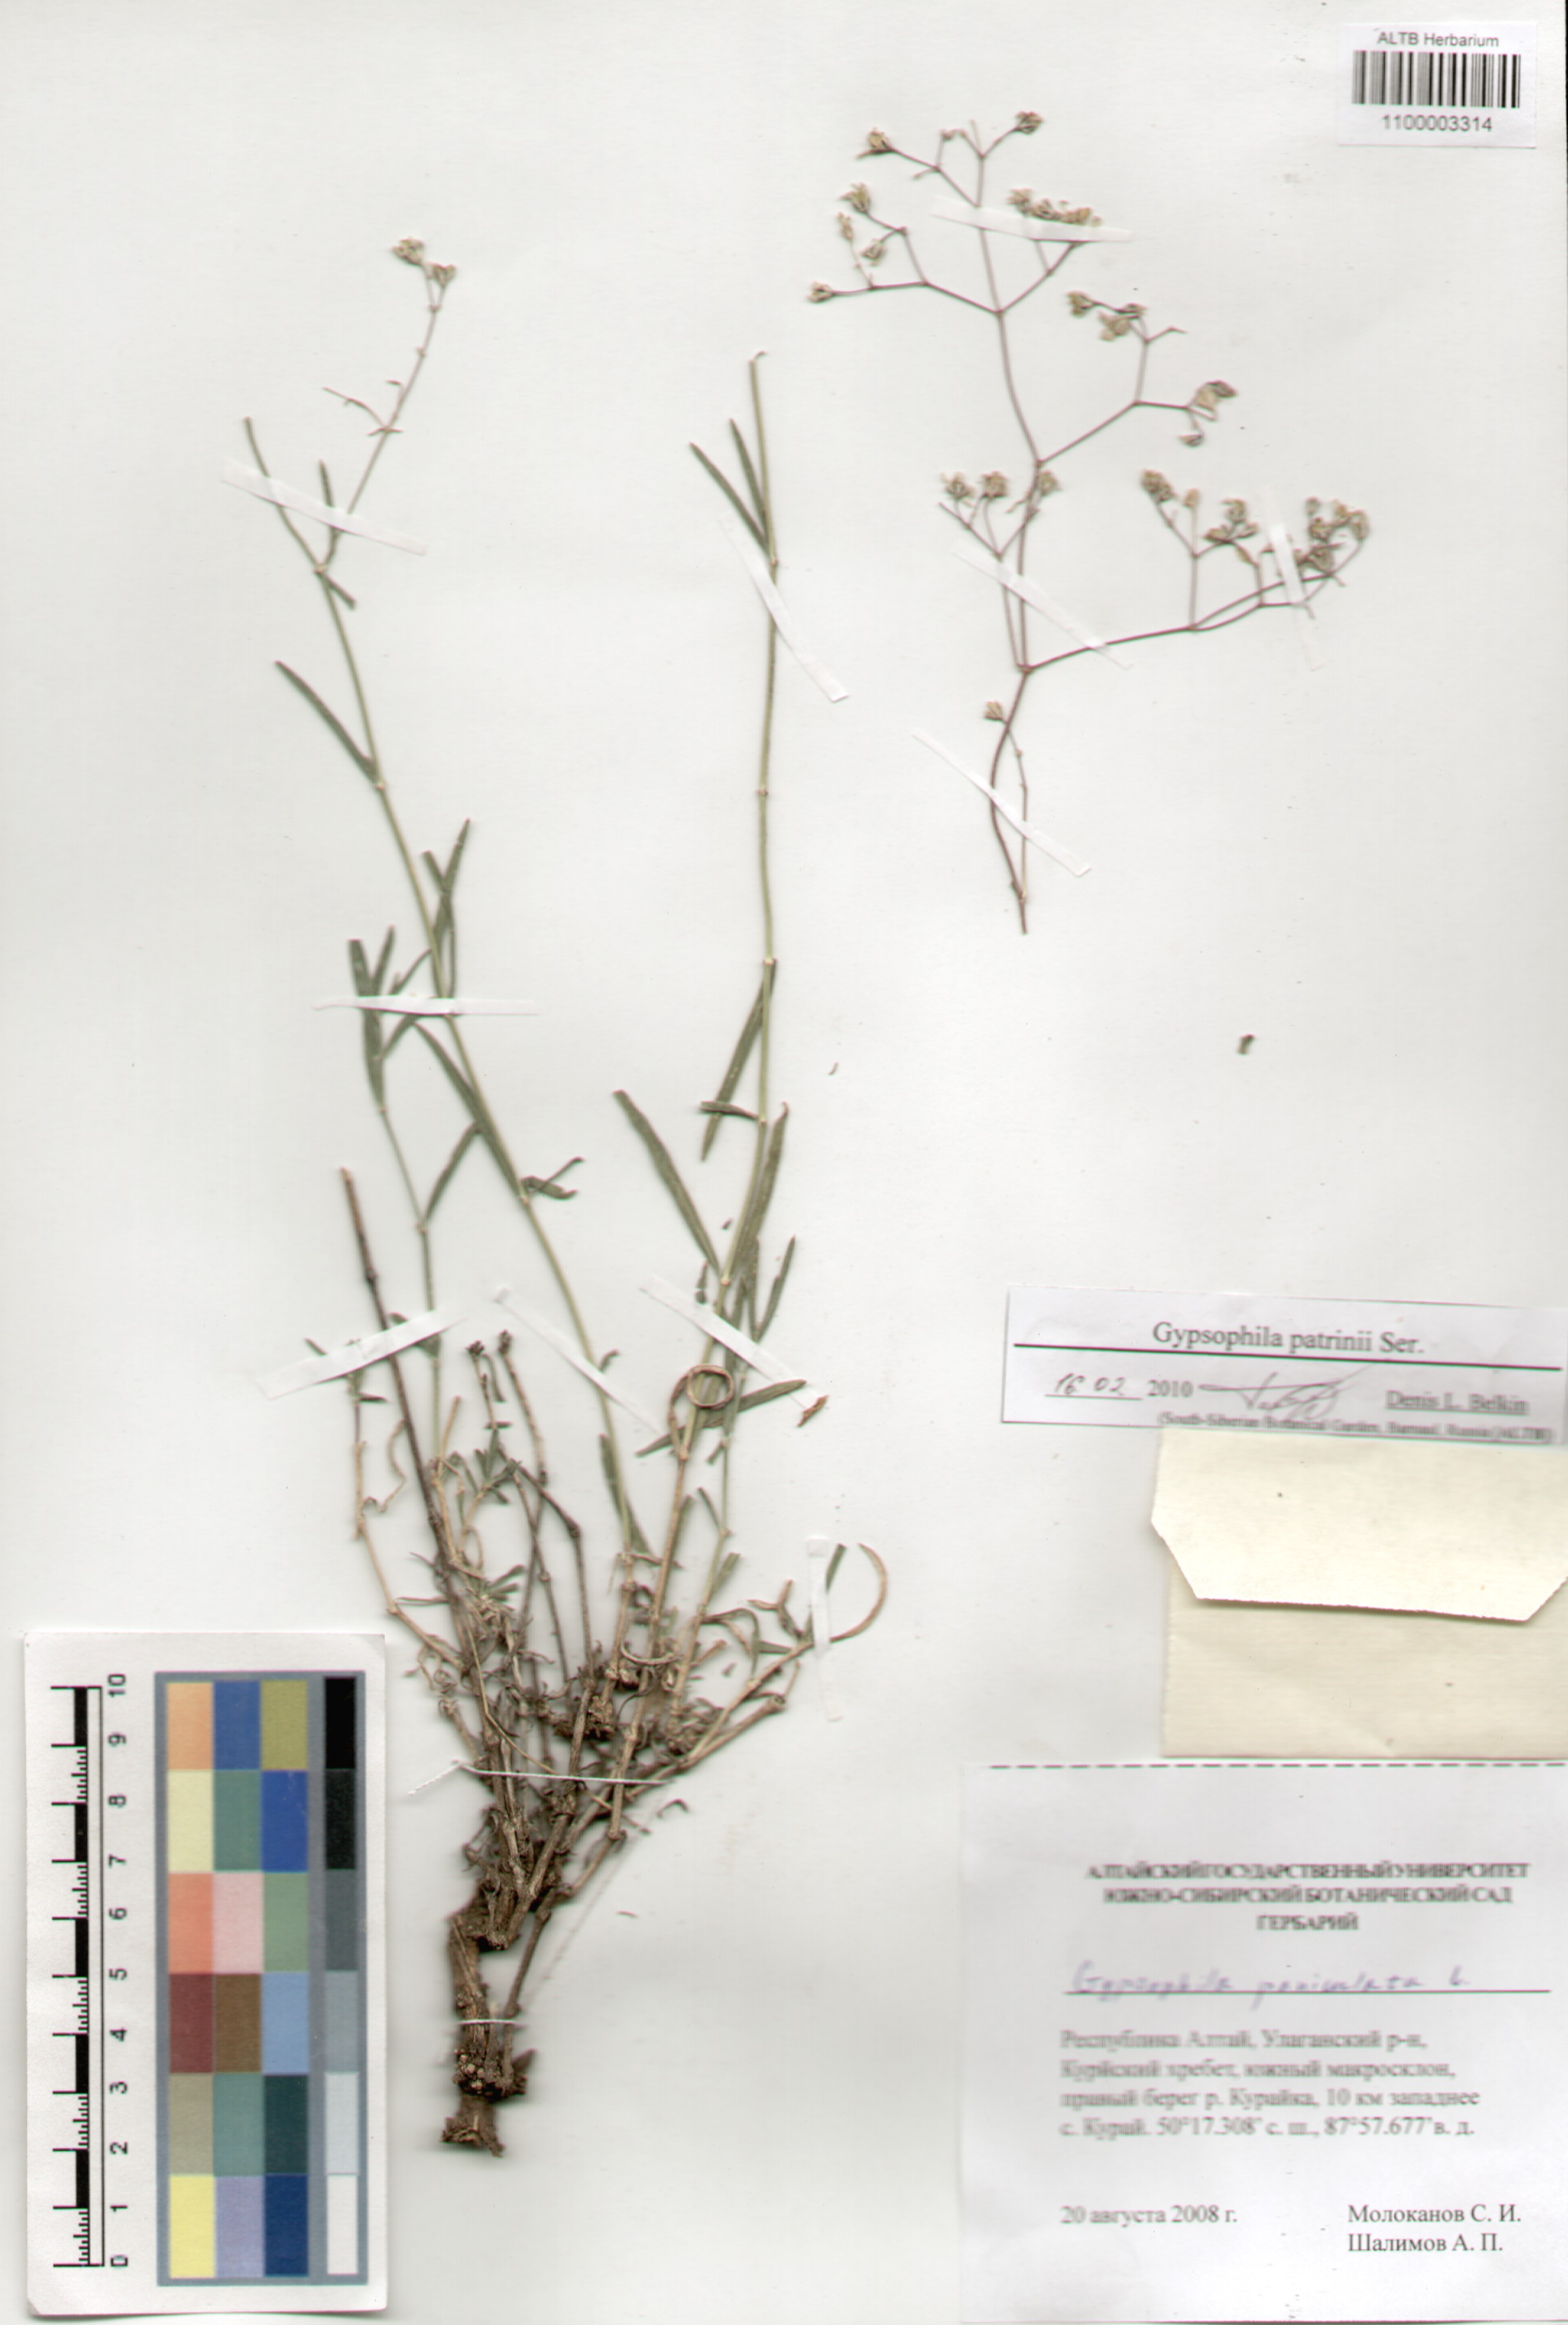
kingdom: Plantae
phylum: Tracheophyta
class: Magnoliopsida
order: Caryophyllales
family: Caryophyllaceae
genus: Gypsophila
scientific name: Gypsophila patrinii
